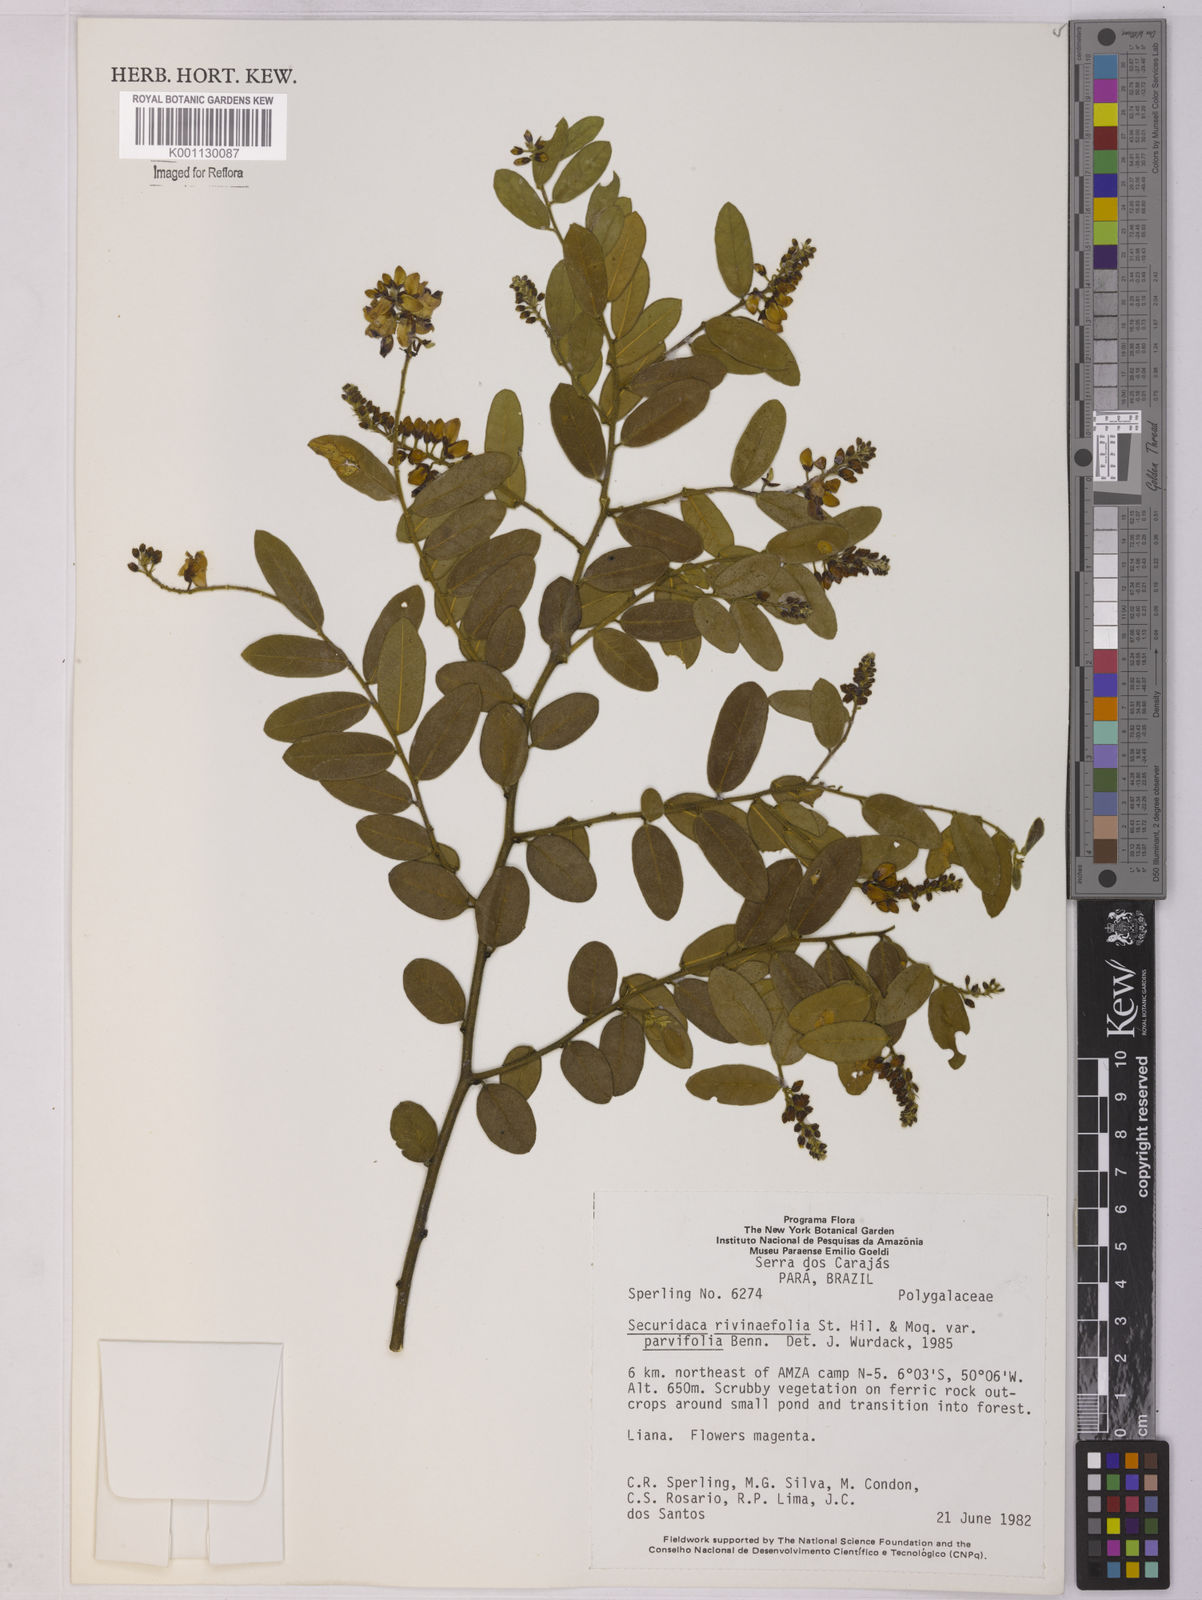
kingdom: Plantae
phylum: Tracheophyta
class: Magnoliopsida
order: Fabales
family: Polygalaceae
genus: Securidaca
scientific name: Securidaca rivinifolia
